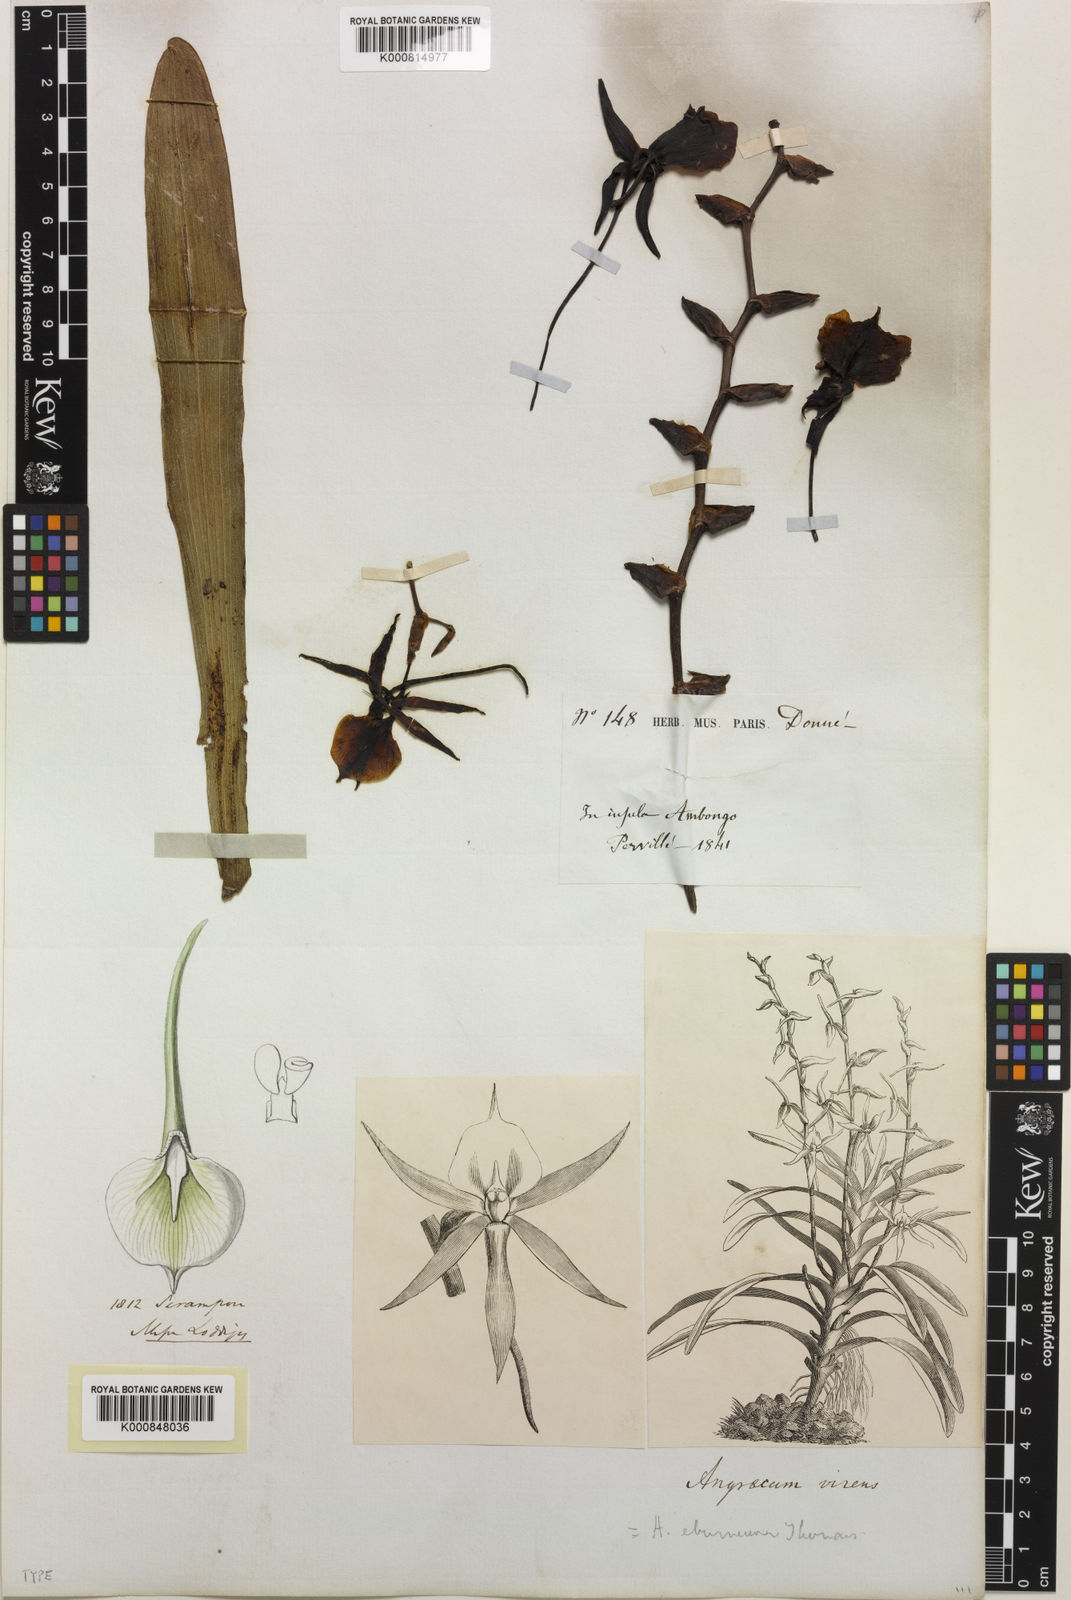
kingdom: Plantae
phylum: Tracheophyta
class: Liliopsida
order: Asparagales
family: Orchidaceae
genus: Angraecum
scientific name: Angraecum eburneum
